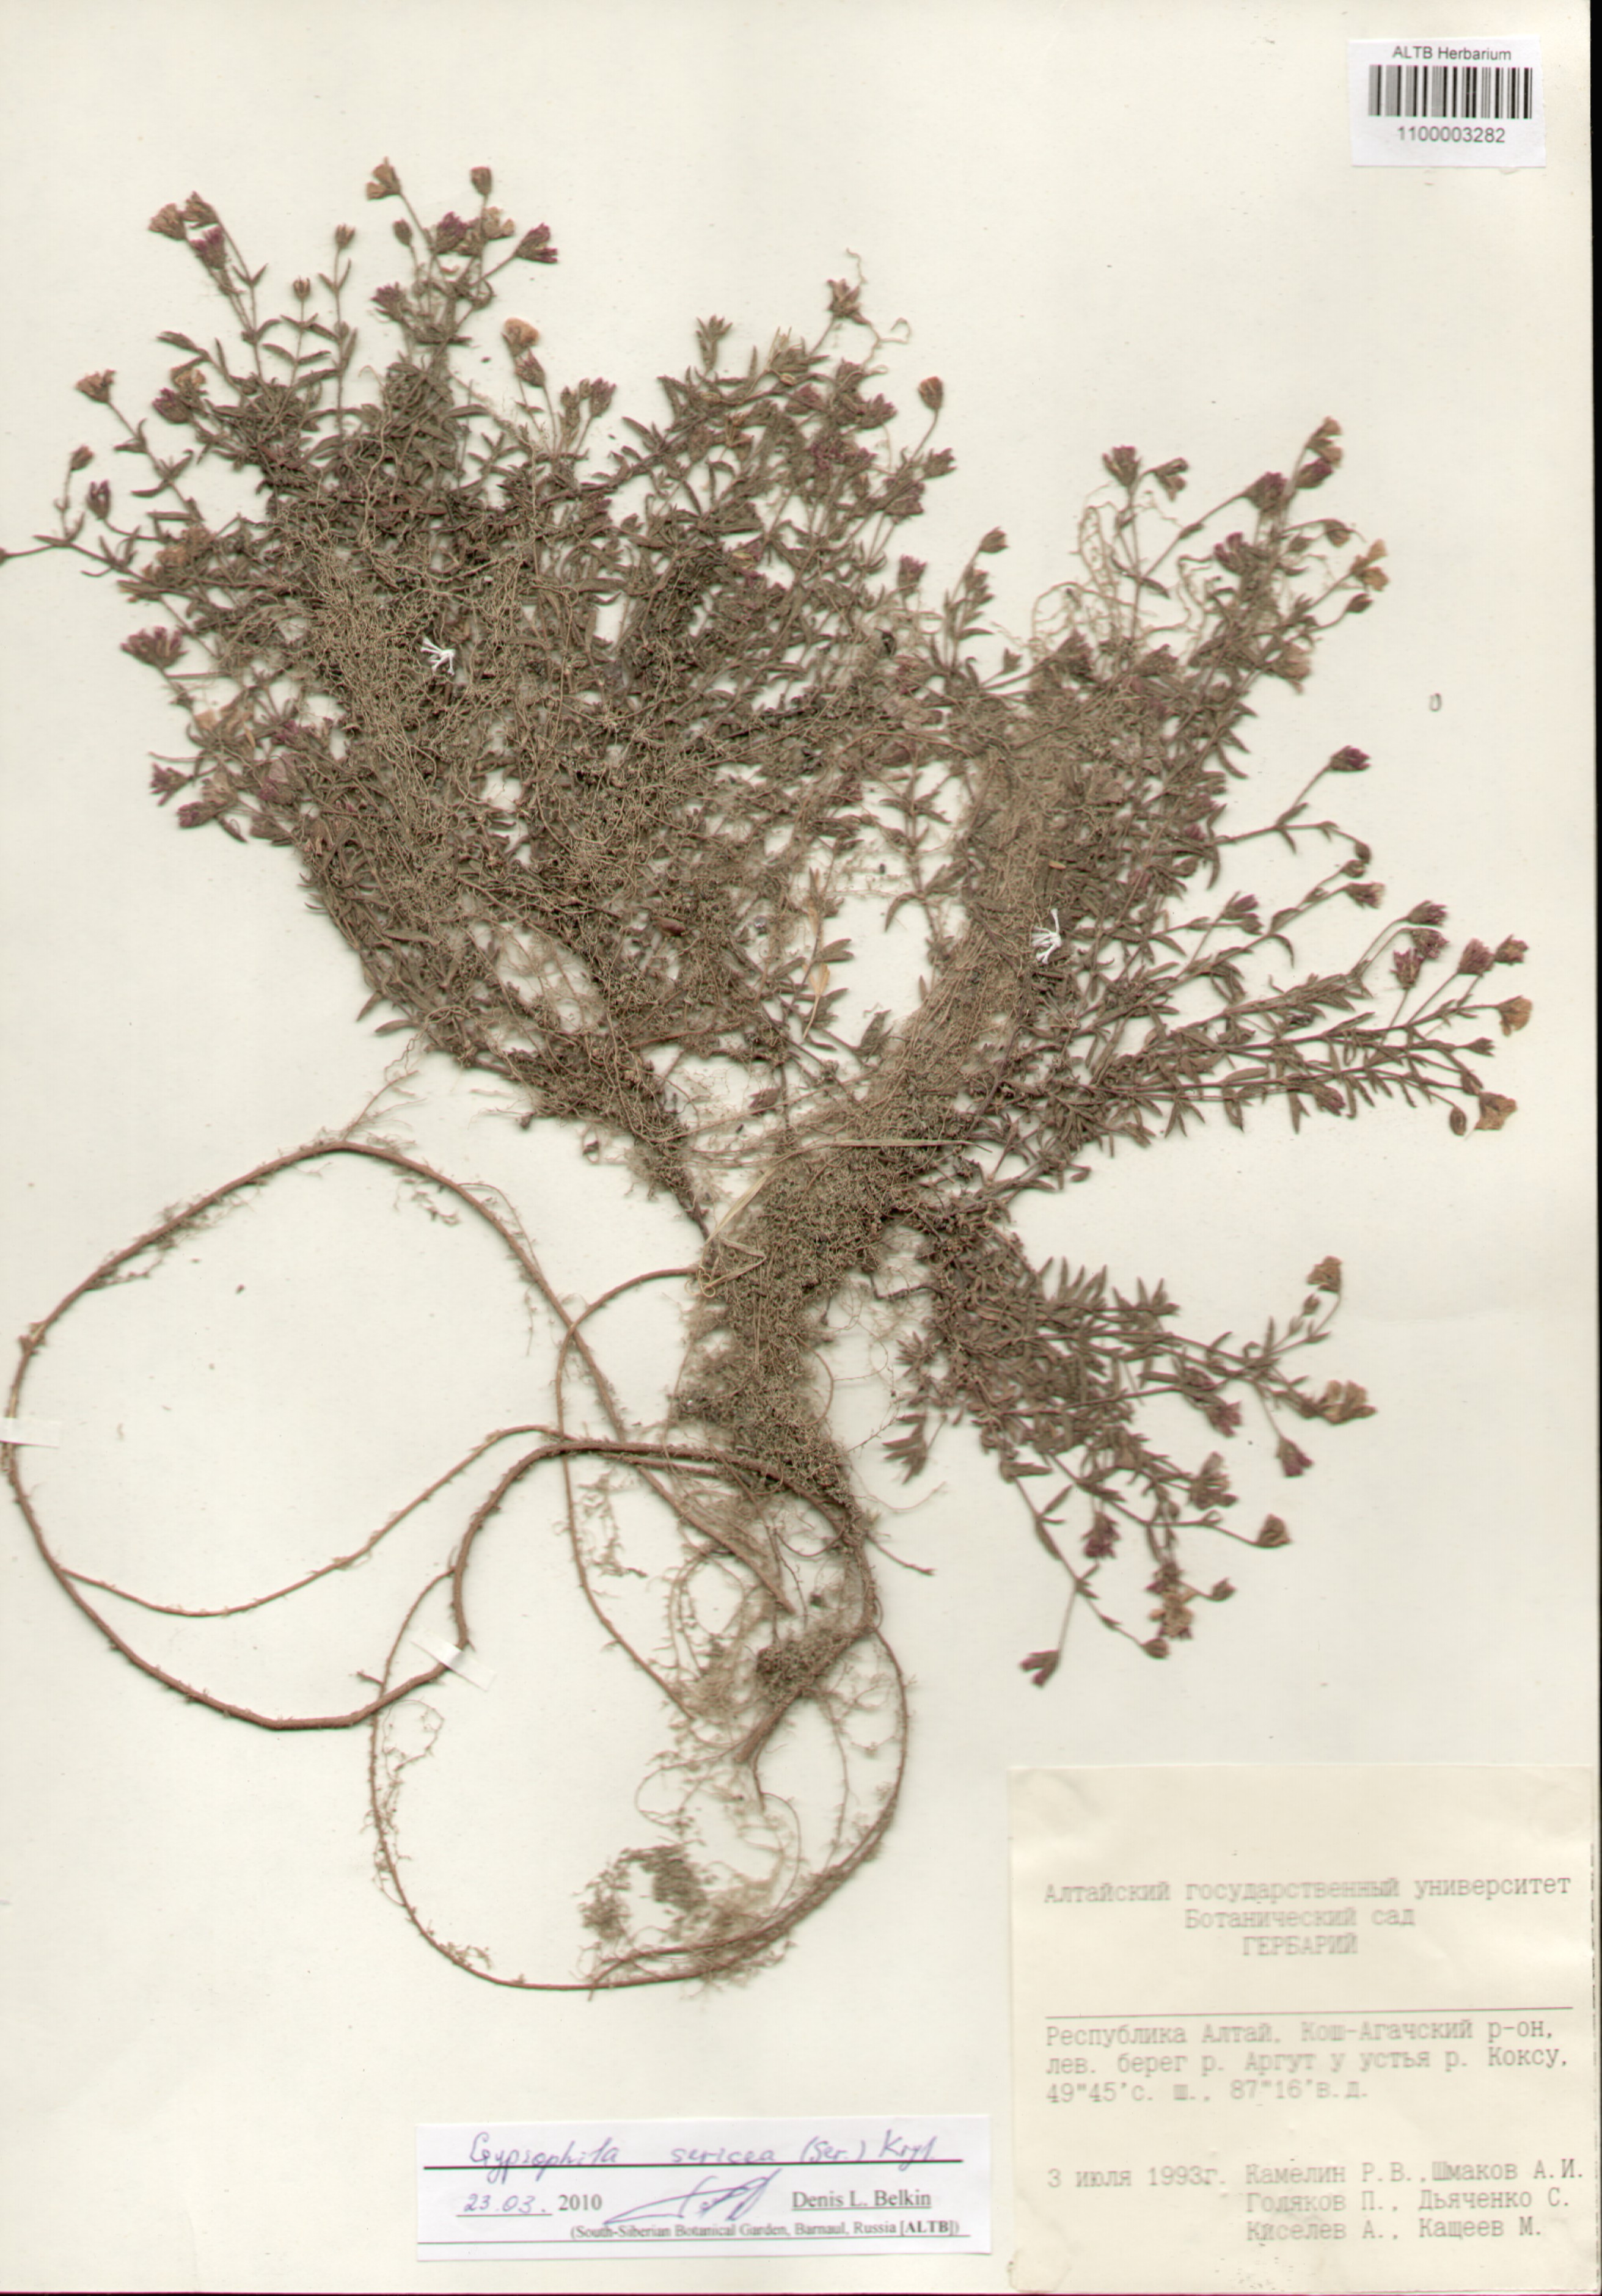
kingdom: Plantae
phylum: Tracheophyta
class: Magnoliopsida
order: Caryophyllales
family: Caryophyllaceae
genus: Heterochroa
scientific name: Heterochroa petraea
